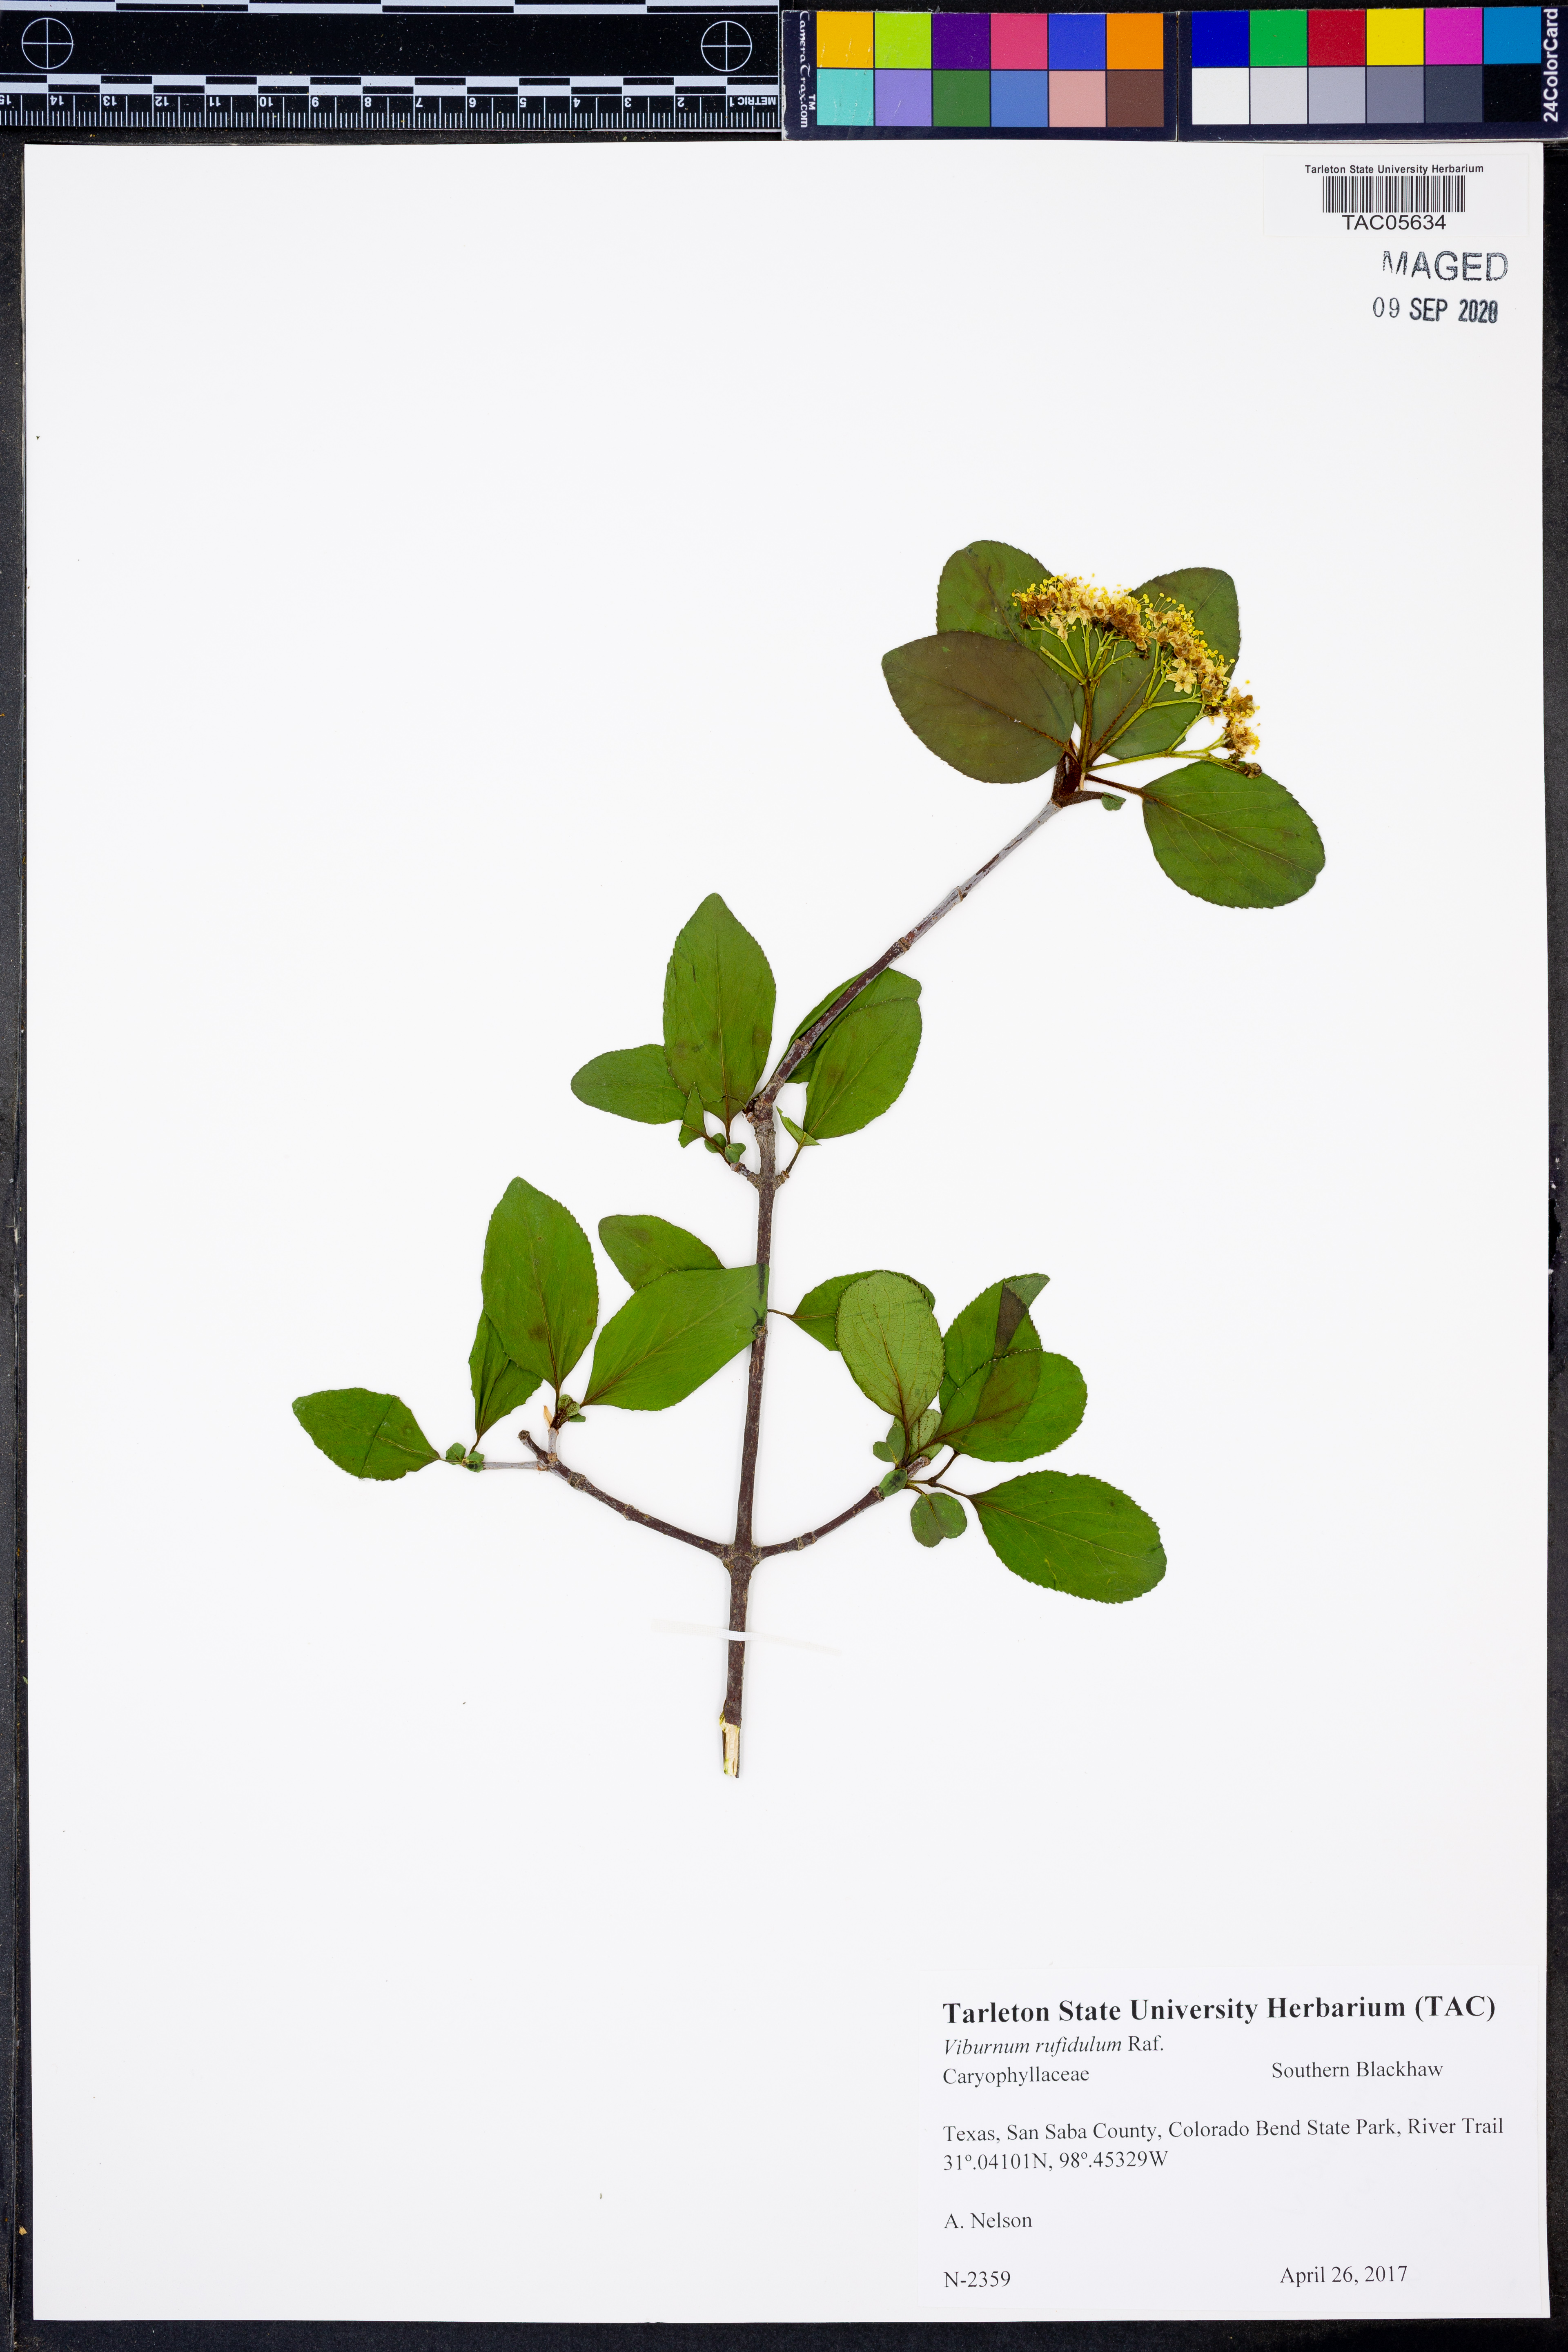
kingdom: Plantae
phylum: Tracheophyta
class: Magnoliopsida
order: Dipsacales
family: Viburnaceae
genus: Viburnum
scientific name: Viburnum rufidulum
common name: Blue haw
